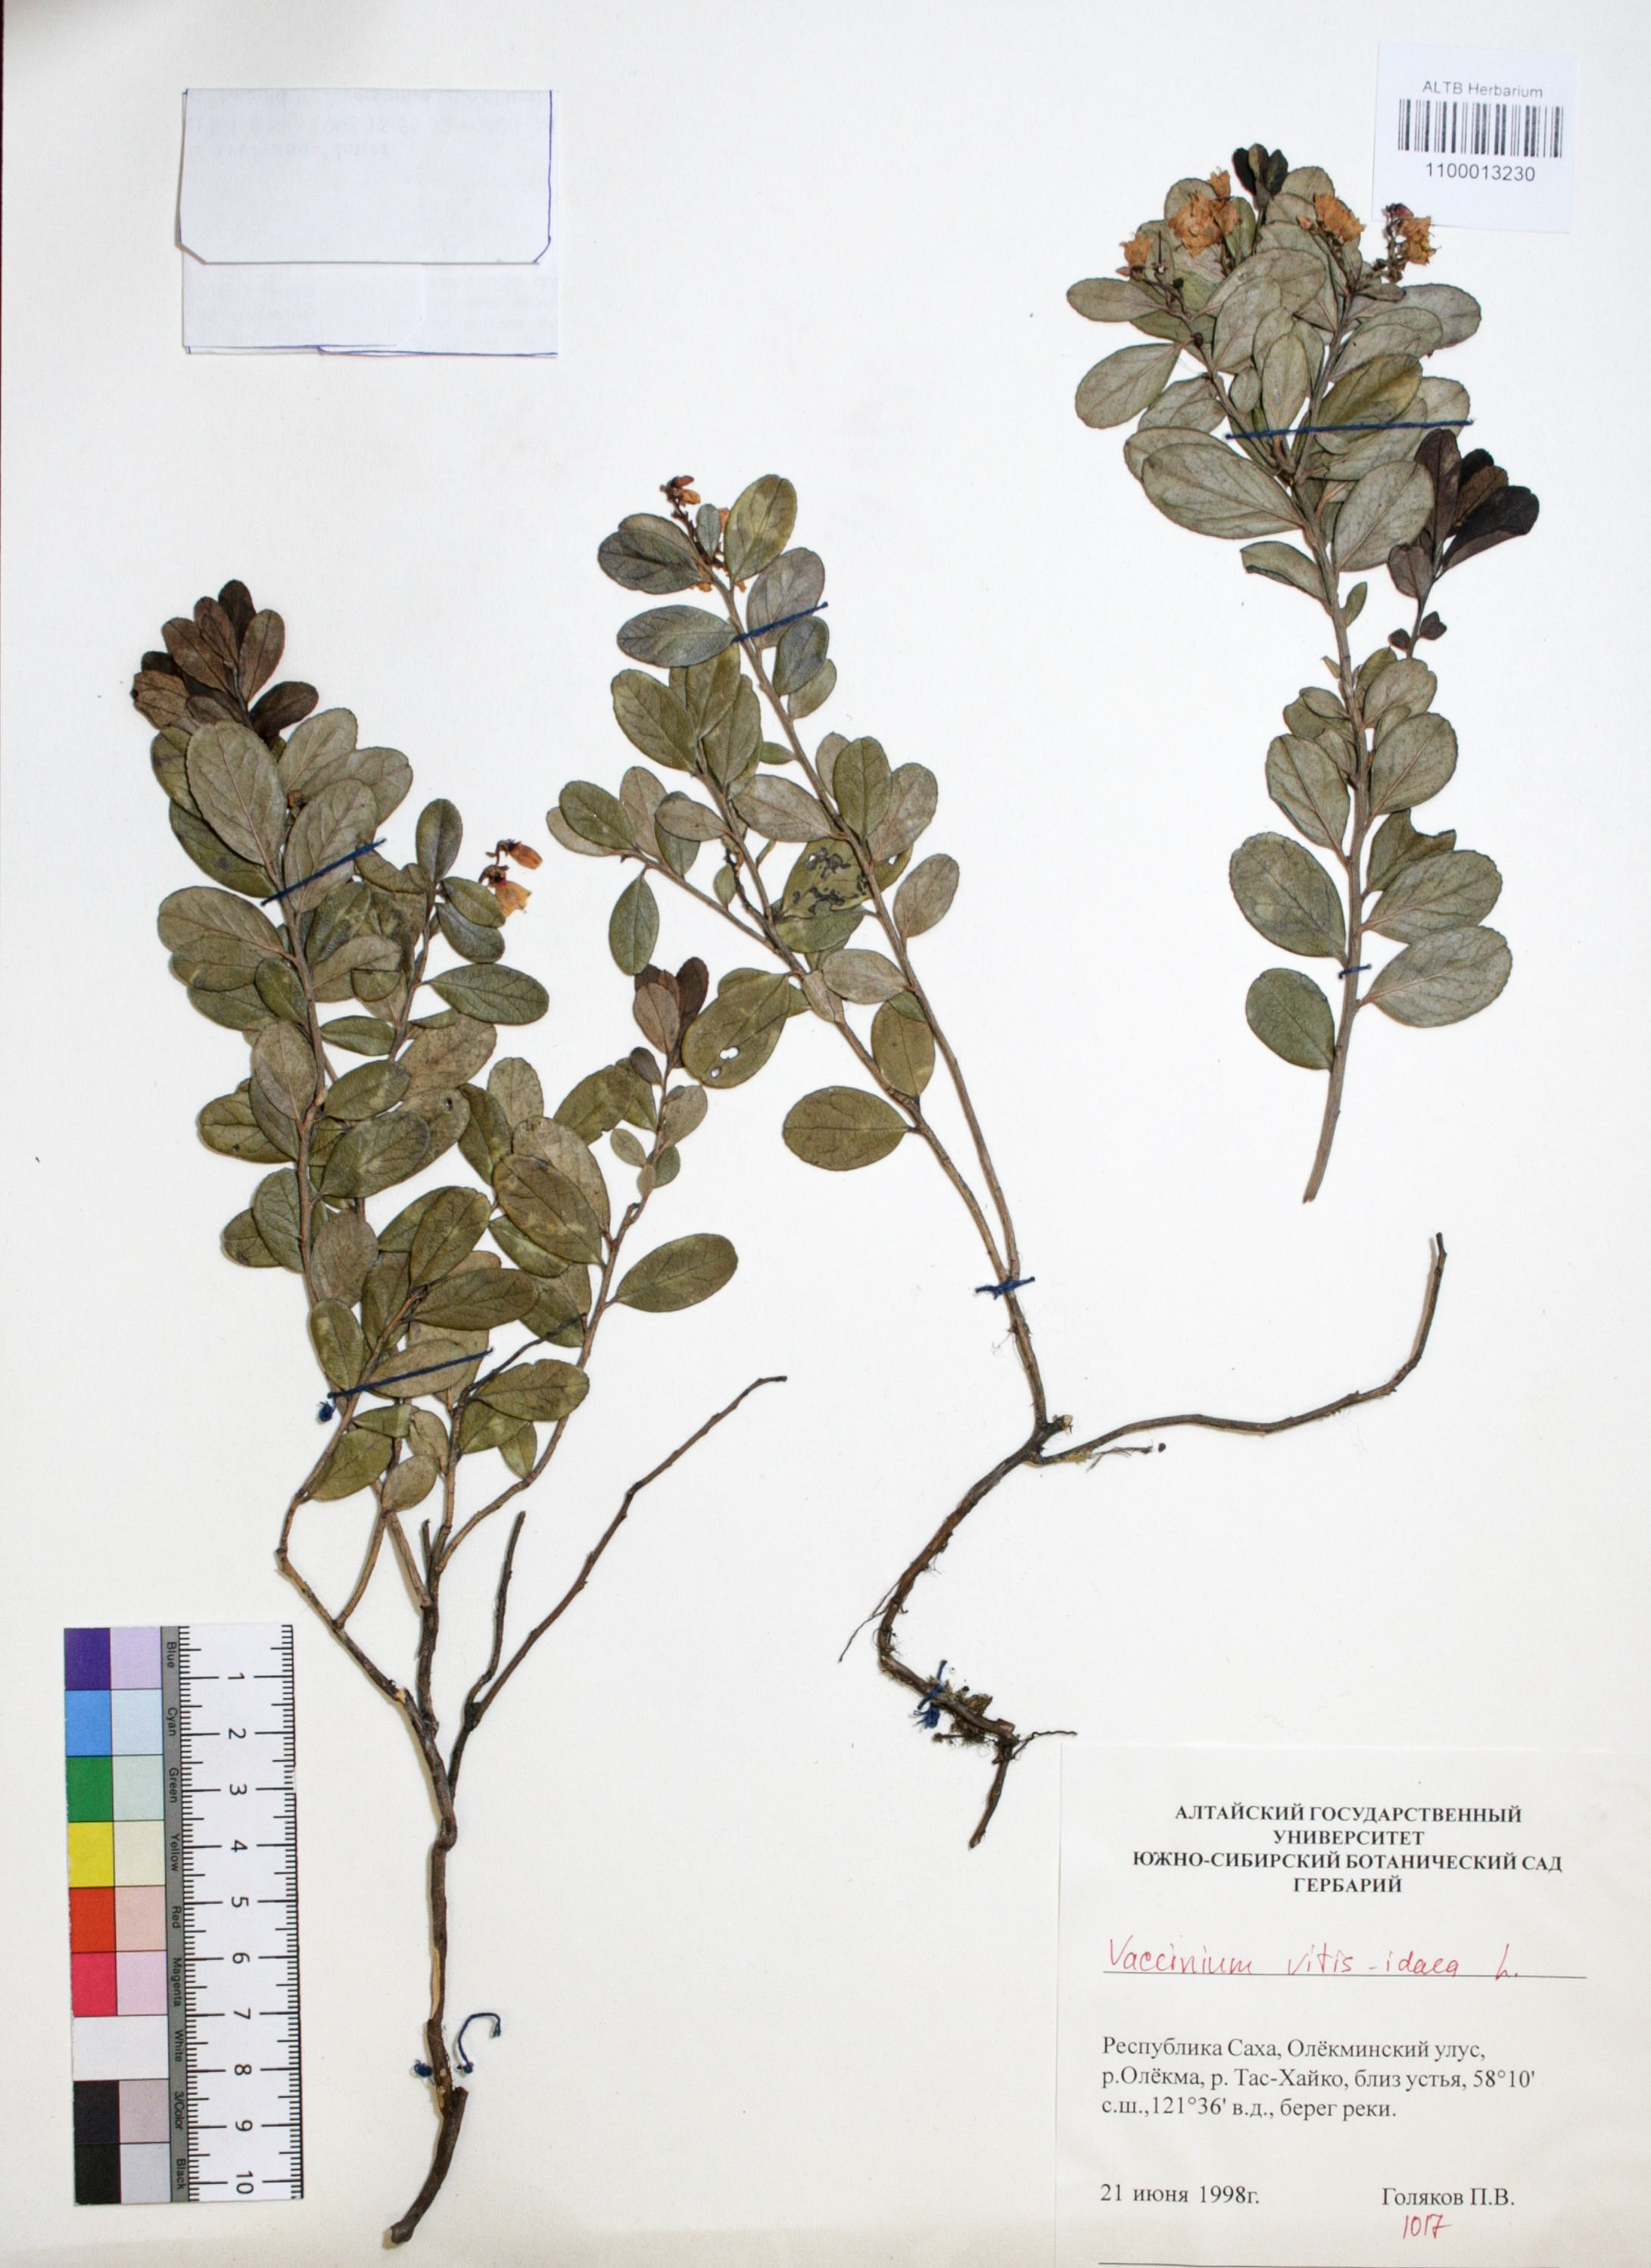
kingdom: Plantae
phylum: Tracheophyta
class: Magnoliopsida
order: Ericales
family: Ericaceae
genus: Vaccinium
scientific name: Vaccinium vitis-idaea
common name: Cowberry
